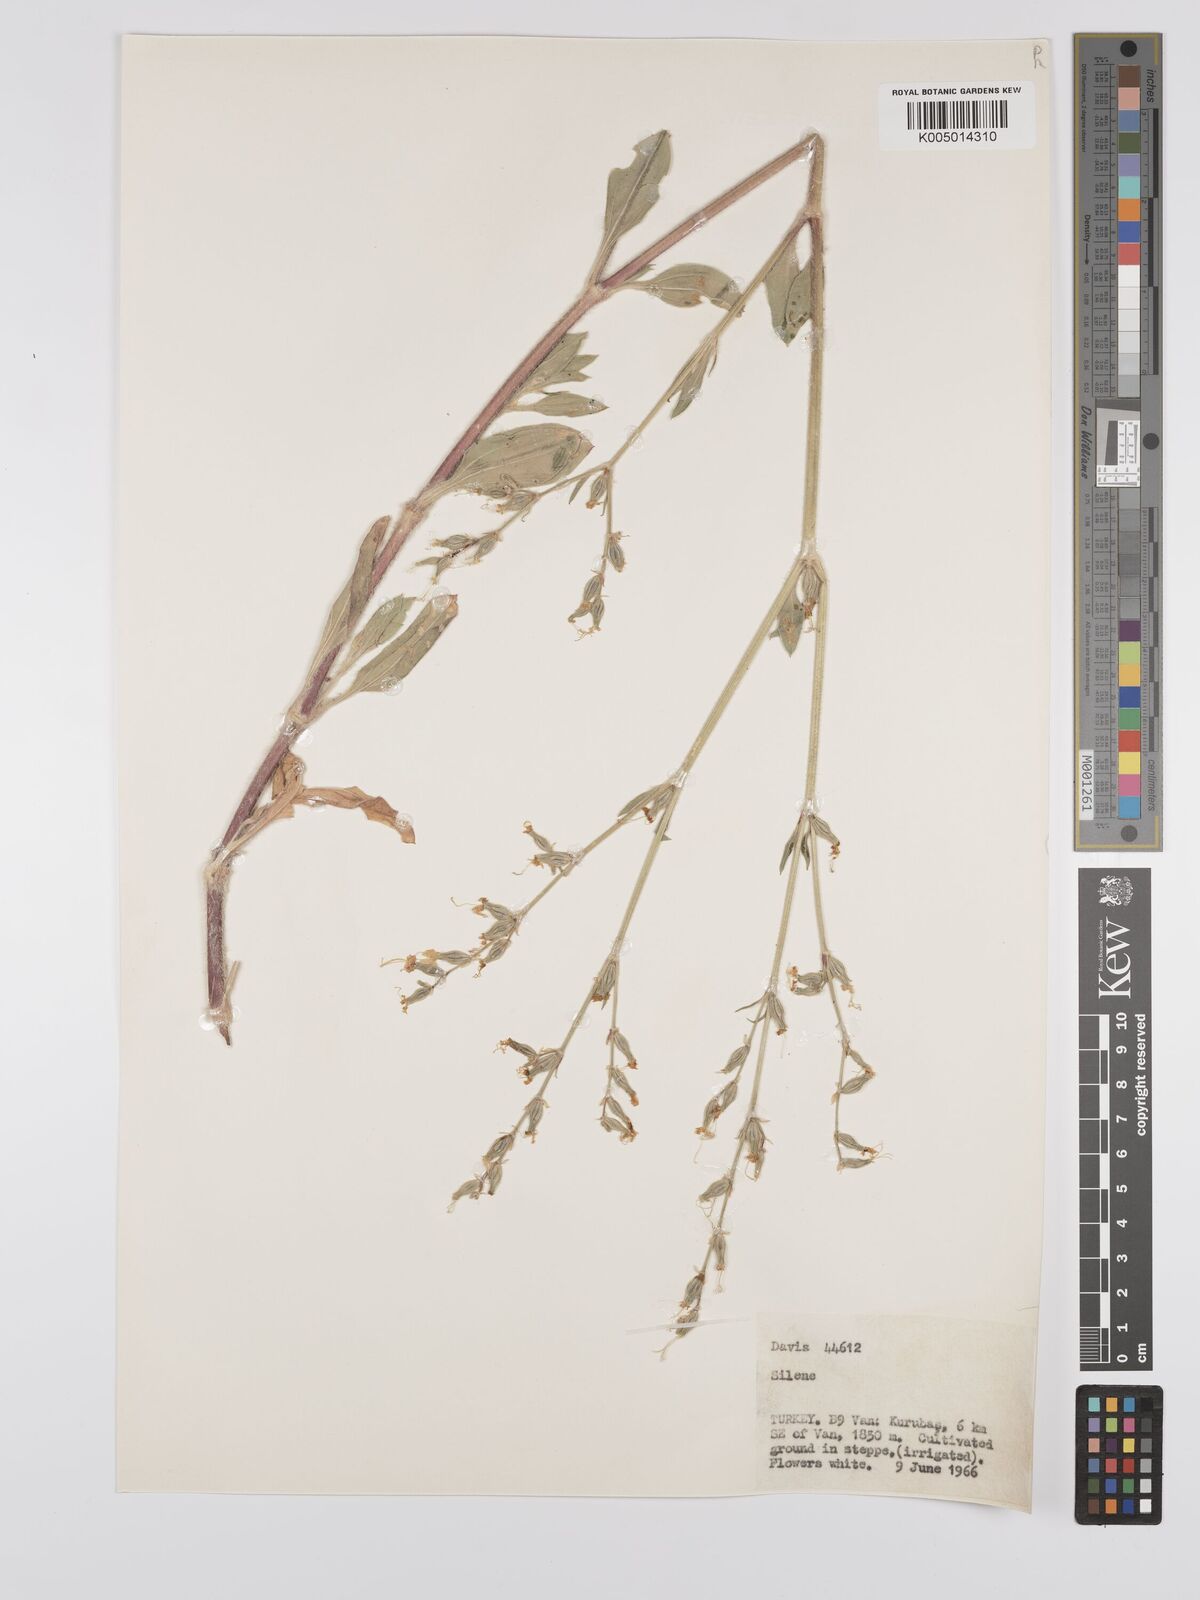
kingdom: Plantae
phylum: Tracheophyta
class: Magnoliopsida
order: Caryophyllales
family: Caryophyllaceae
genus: Silene
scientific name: Silene
